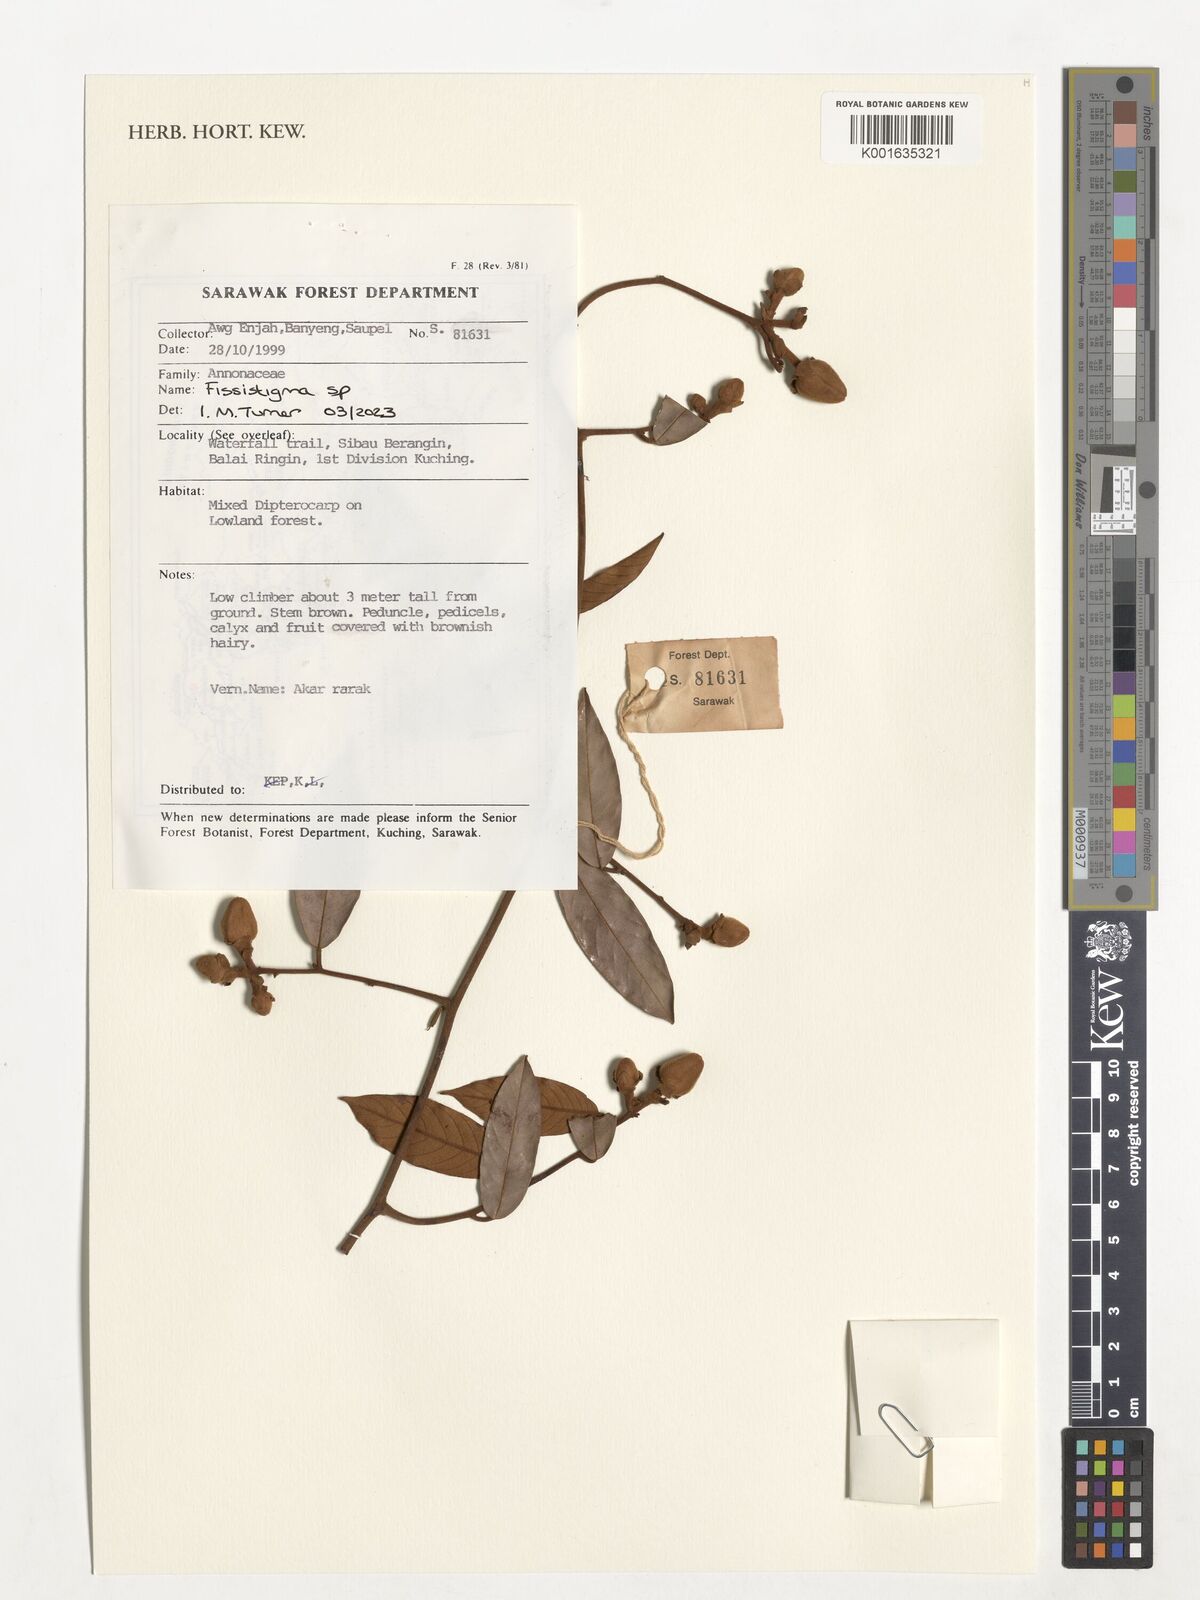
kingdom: Plantae
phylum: Tracheophyta
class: Magnoliopsida
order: Magnoliales
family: Annonaceae
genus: Fissistigma
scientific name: Fissistigma
